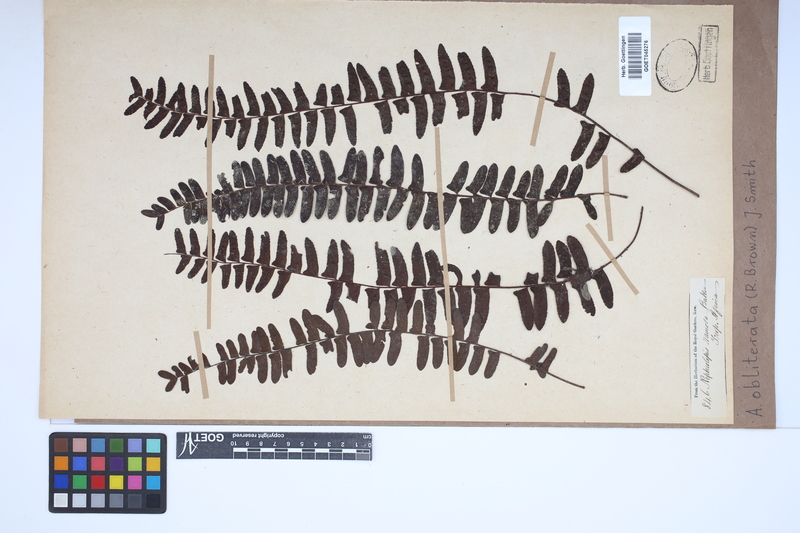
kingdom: Plantae
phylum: Tracheophyta
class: Polypodiopsida
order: Polypodiales
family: Nephrolepidaceae
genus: Nephrolepis
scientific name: Nephrolepis obliterata
